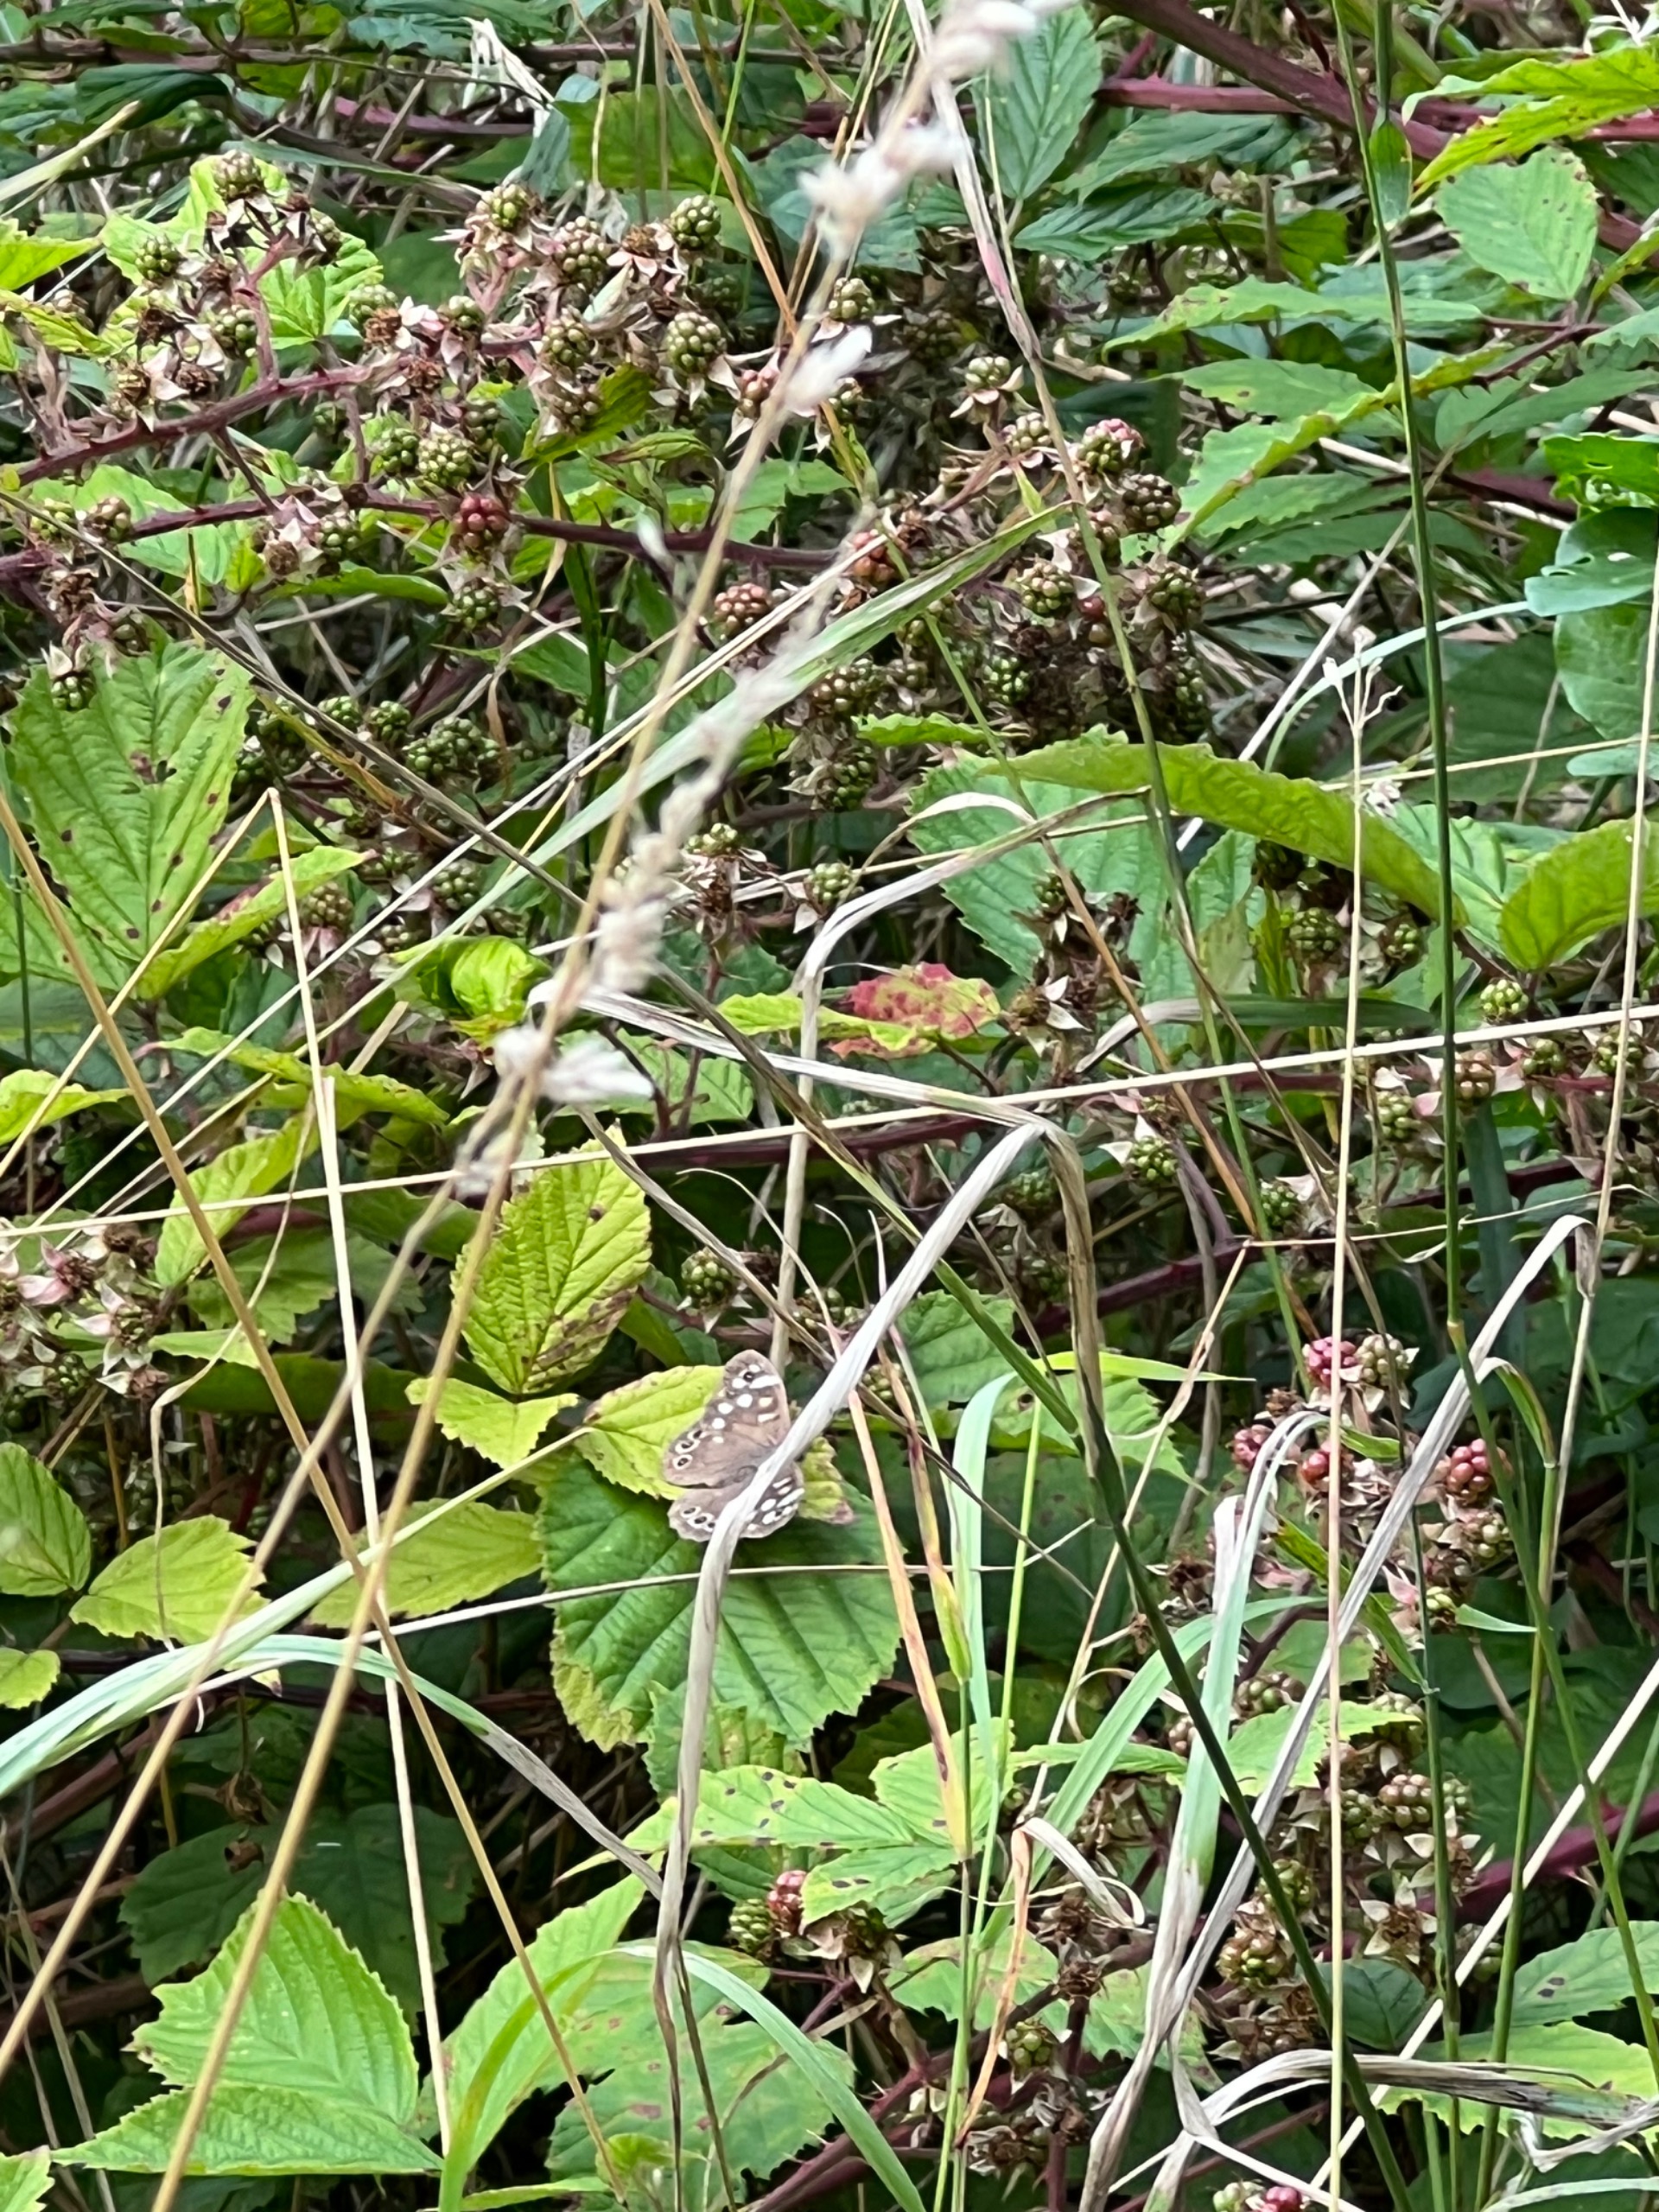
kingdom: Animalia
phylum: Arthropoda
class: Insecta
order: Lepidoptera
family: Nymphalidae
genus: Pararge
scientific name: Pararge aegeria
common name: Skovrandøje
